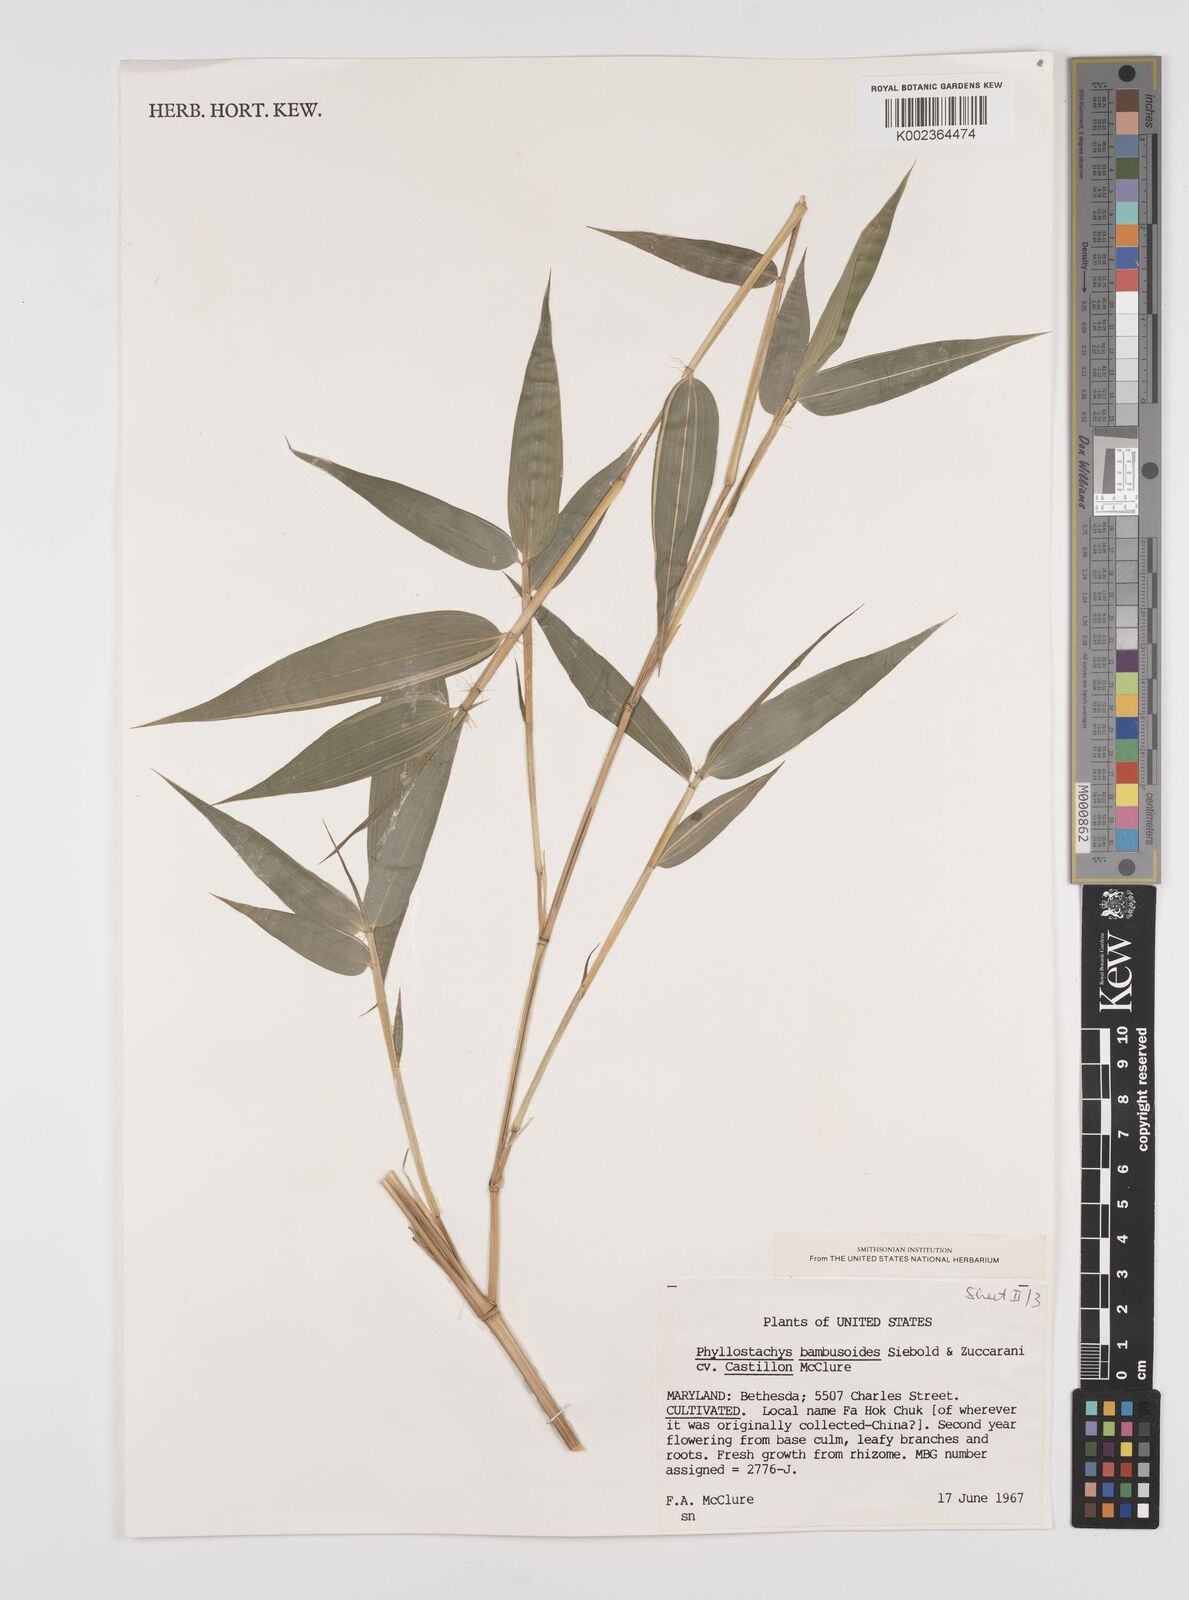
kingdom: Plantae
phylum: Tracheophyta
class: Liliopsida
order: Poales
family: Poaceae
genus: Phyllostachys
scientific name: Phyllostachys
